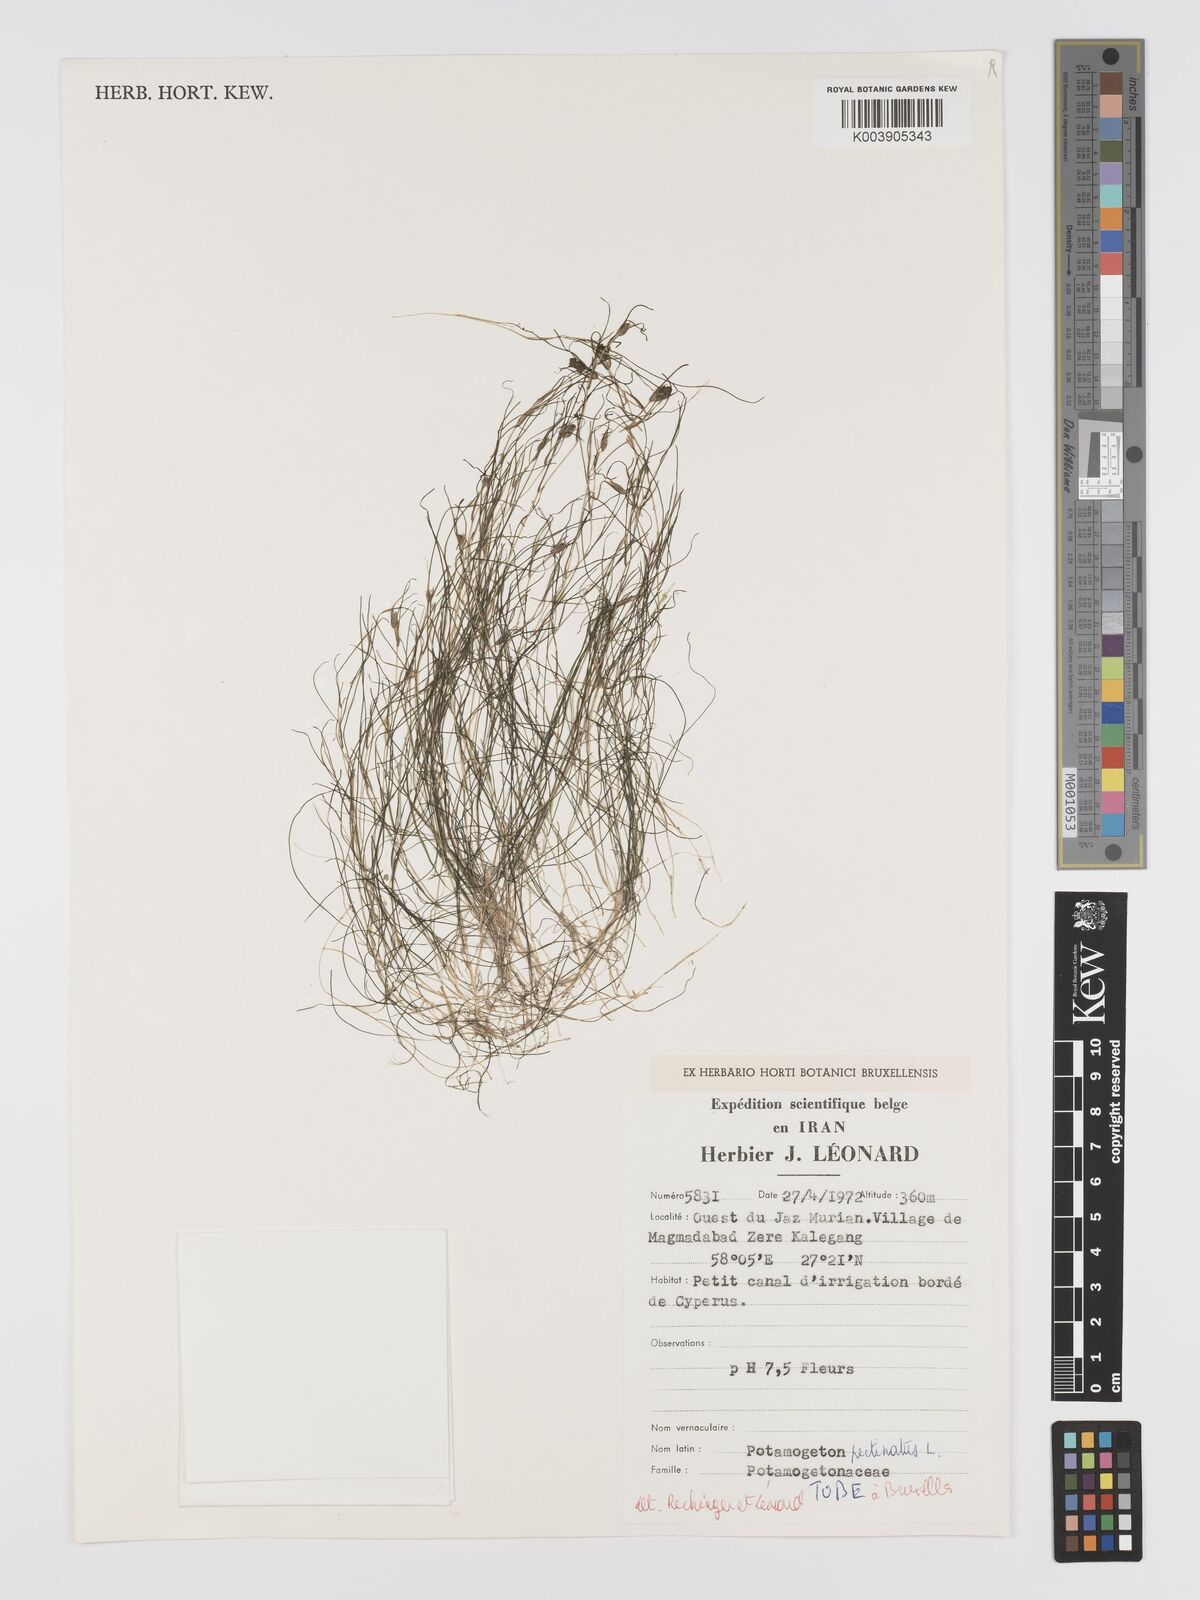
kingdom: Plantae
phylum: Tracheophyta
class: Liliopsida
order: Alismatales
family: Potamogetonaceae
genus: Stuckenia
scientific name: Stuckenia pectinata
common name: Sago pondweed
